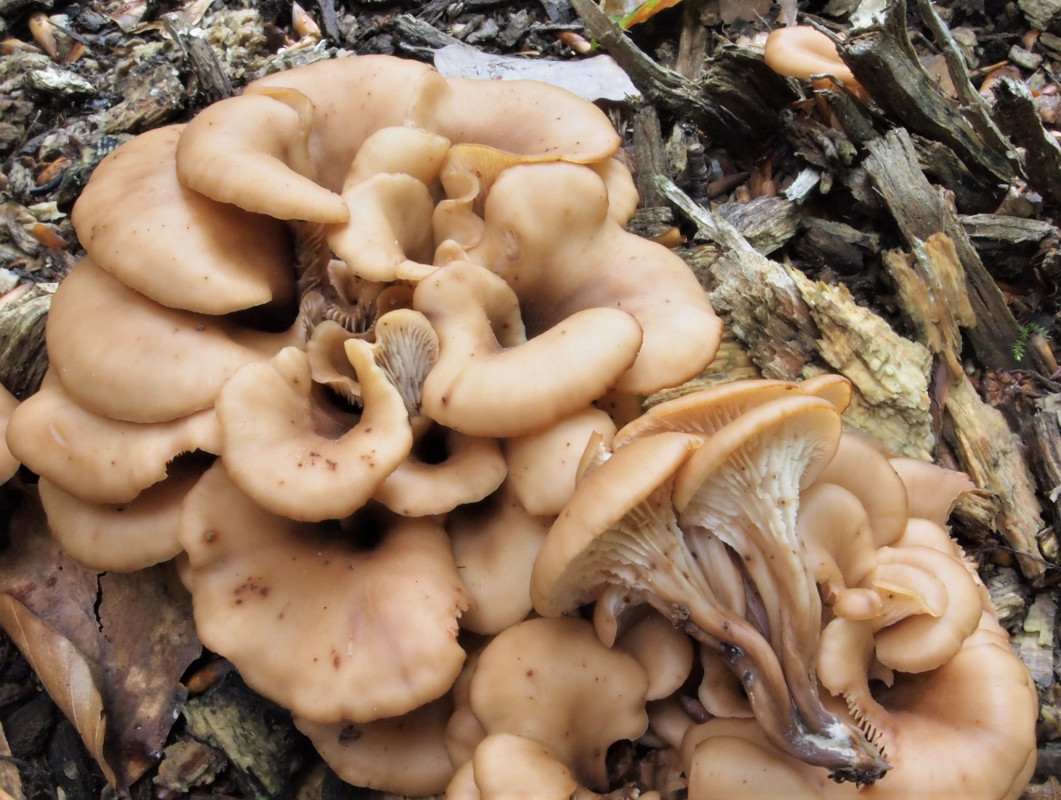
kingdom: Fungi
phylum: Basidiomycota
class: Agaricomycetes
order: Russulales
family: Auriscalpiaceae
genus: Lentinellus
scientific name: Lentinellus cochleatus
